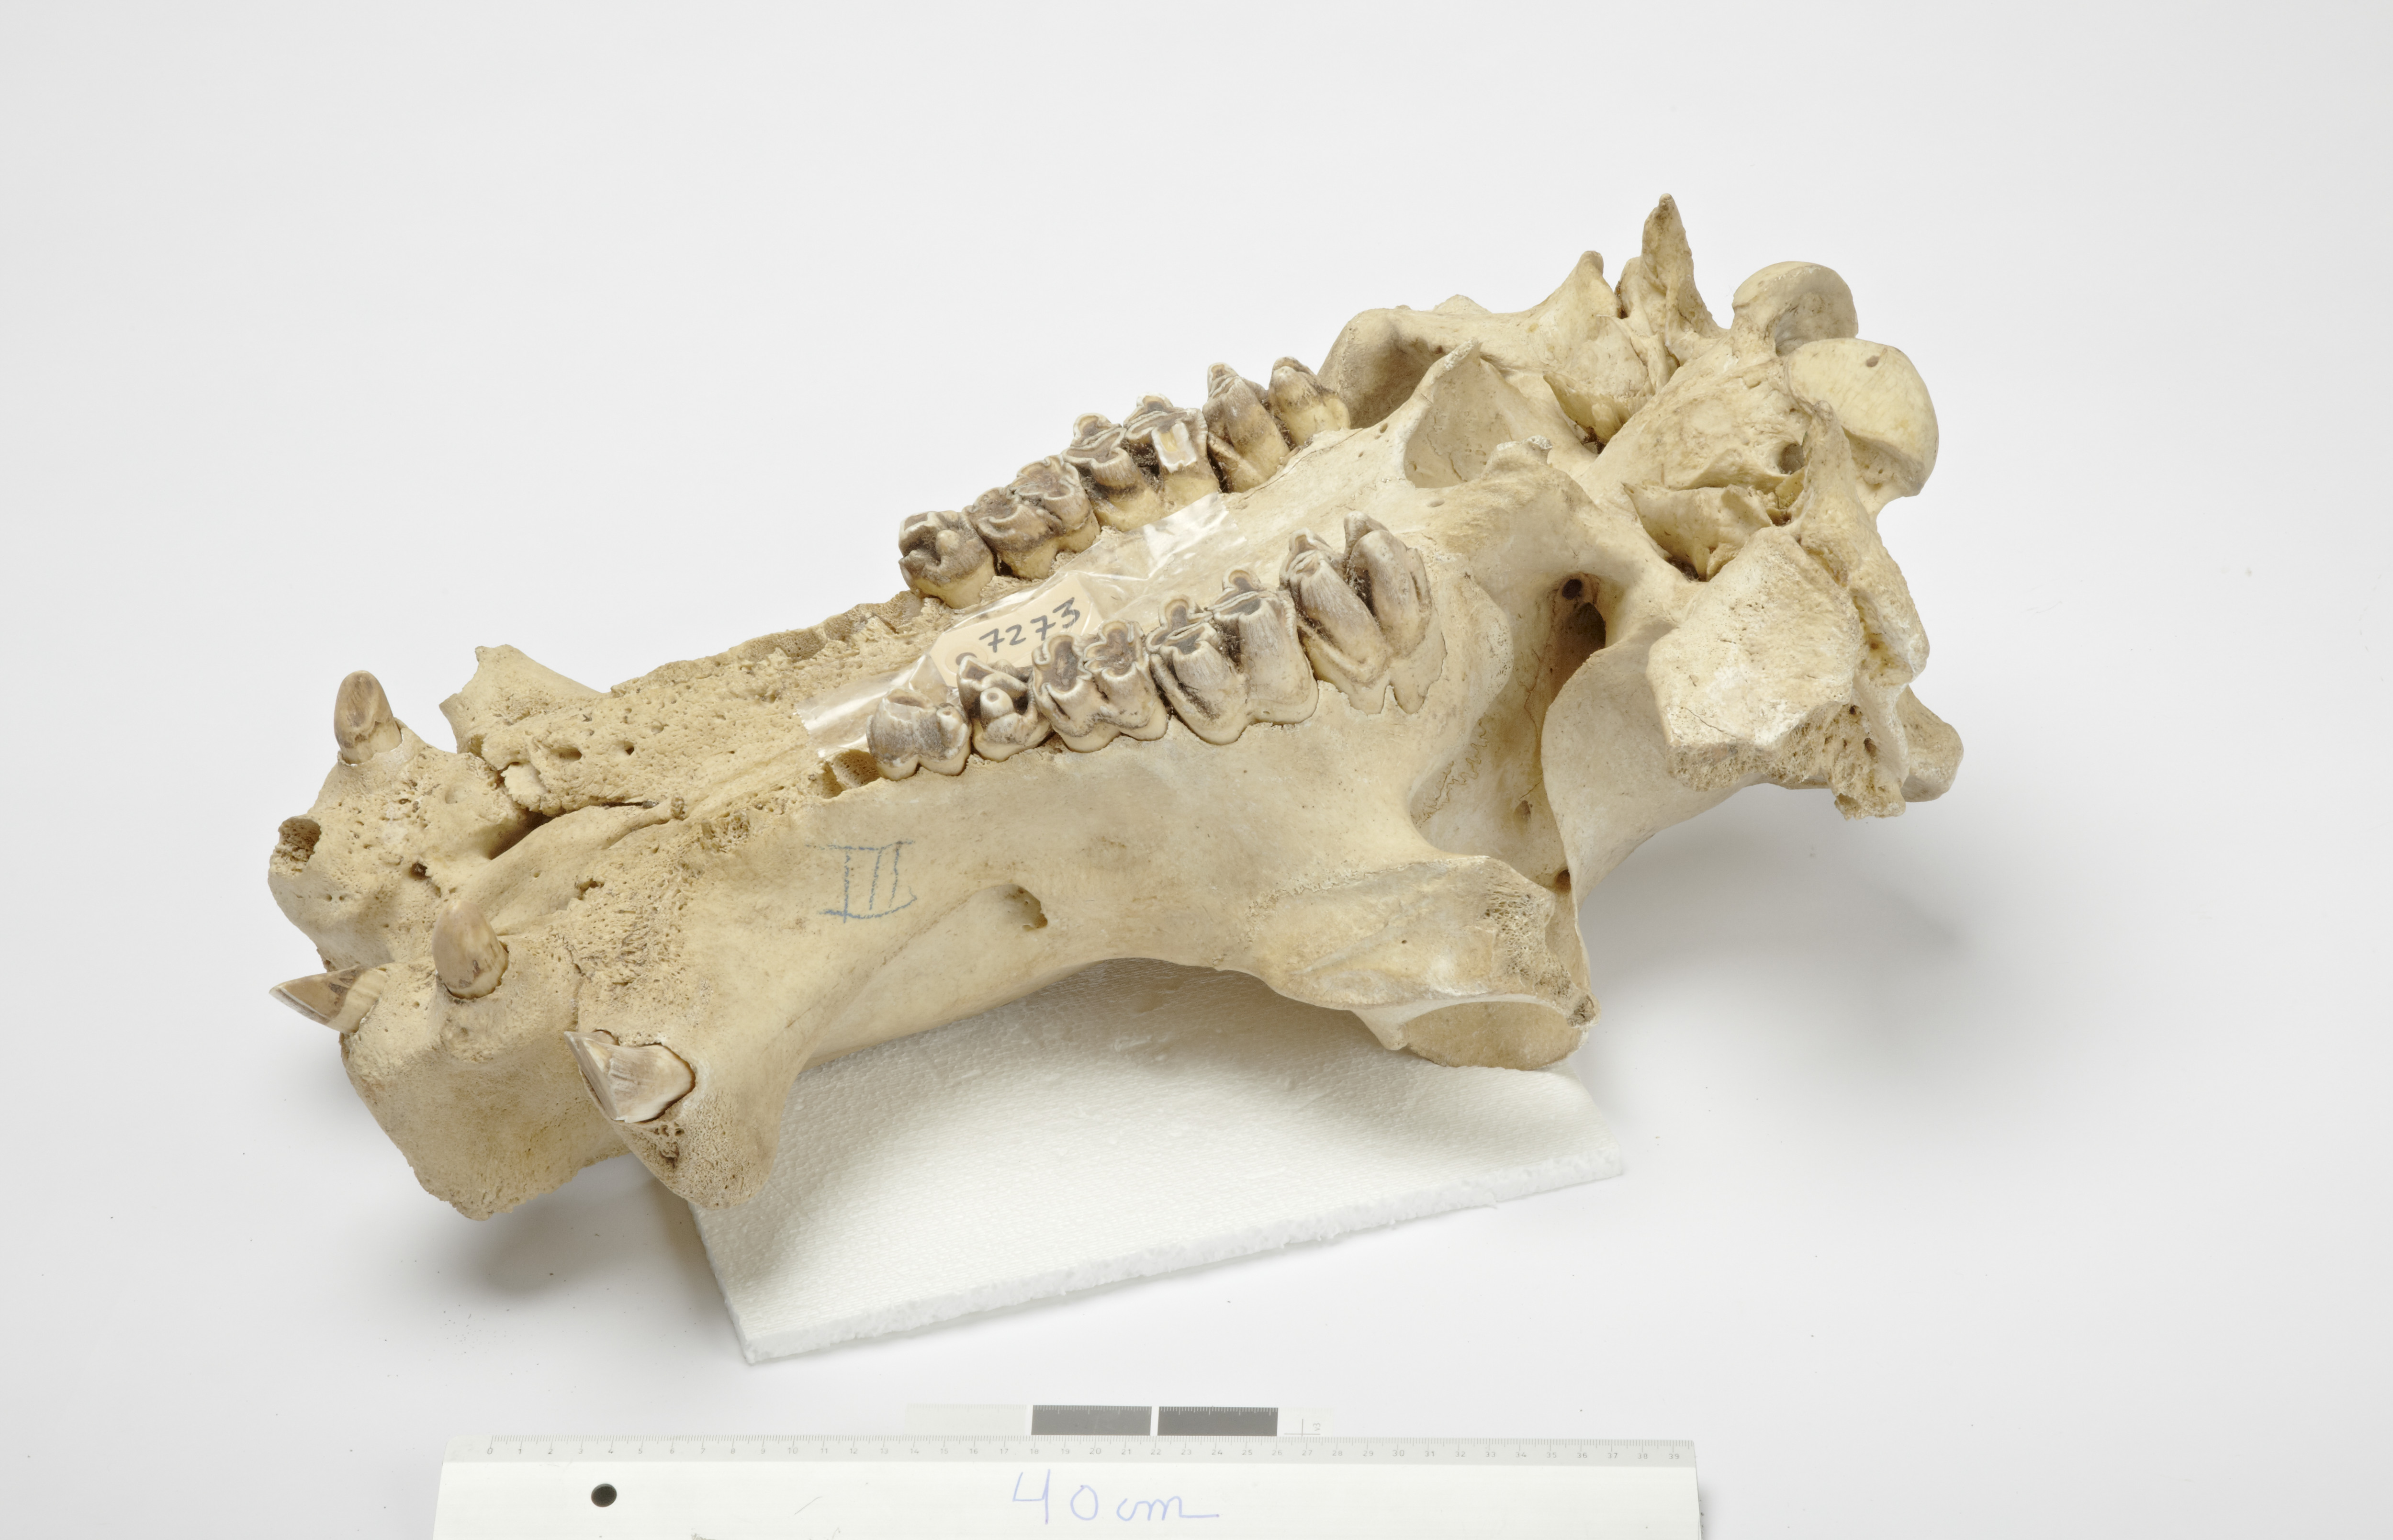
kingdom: Animalia
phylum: Chordata
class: Mammalia
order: Artiodactyla
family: Hippopotamidae
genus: Hippopotamus
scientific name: Hippopotamus
